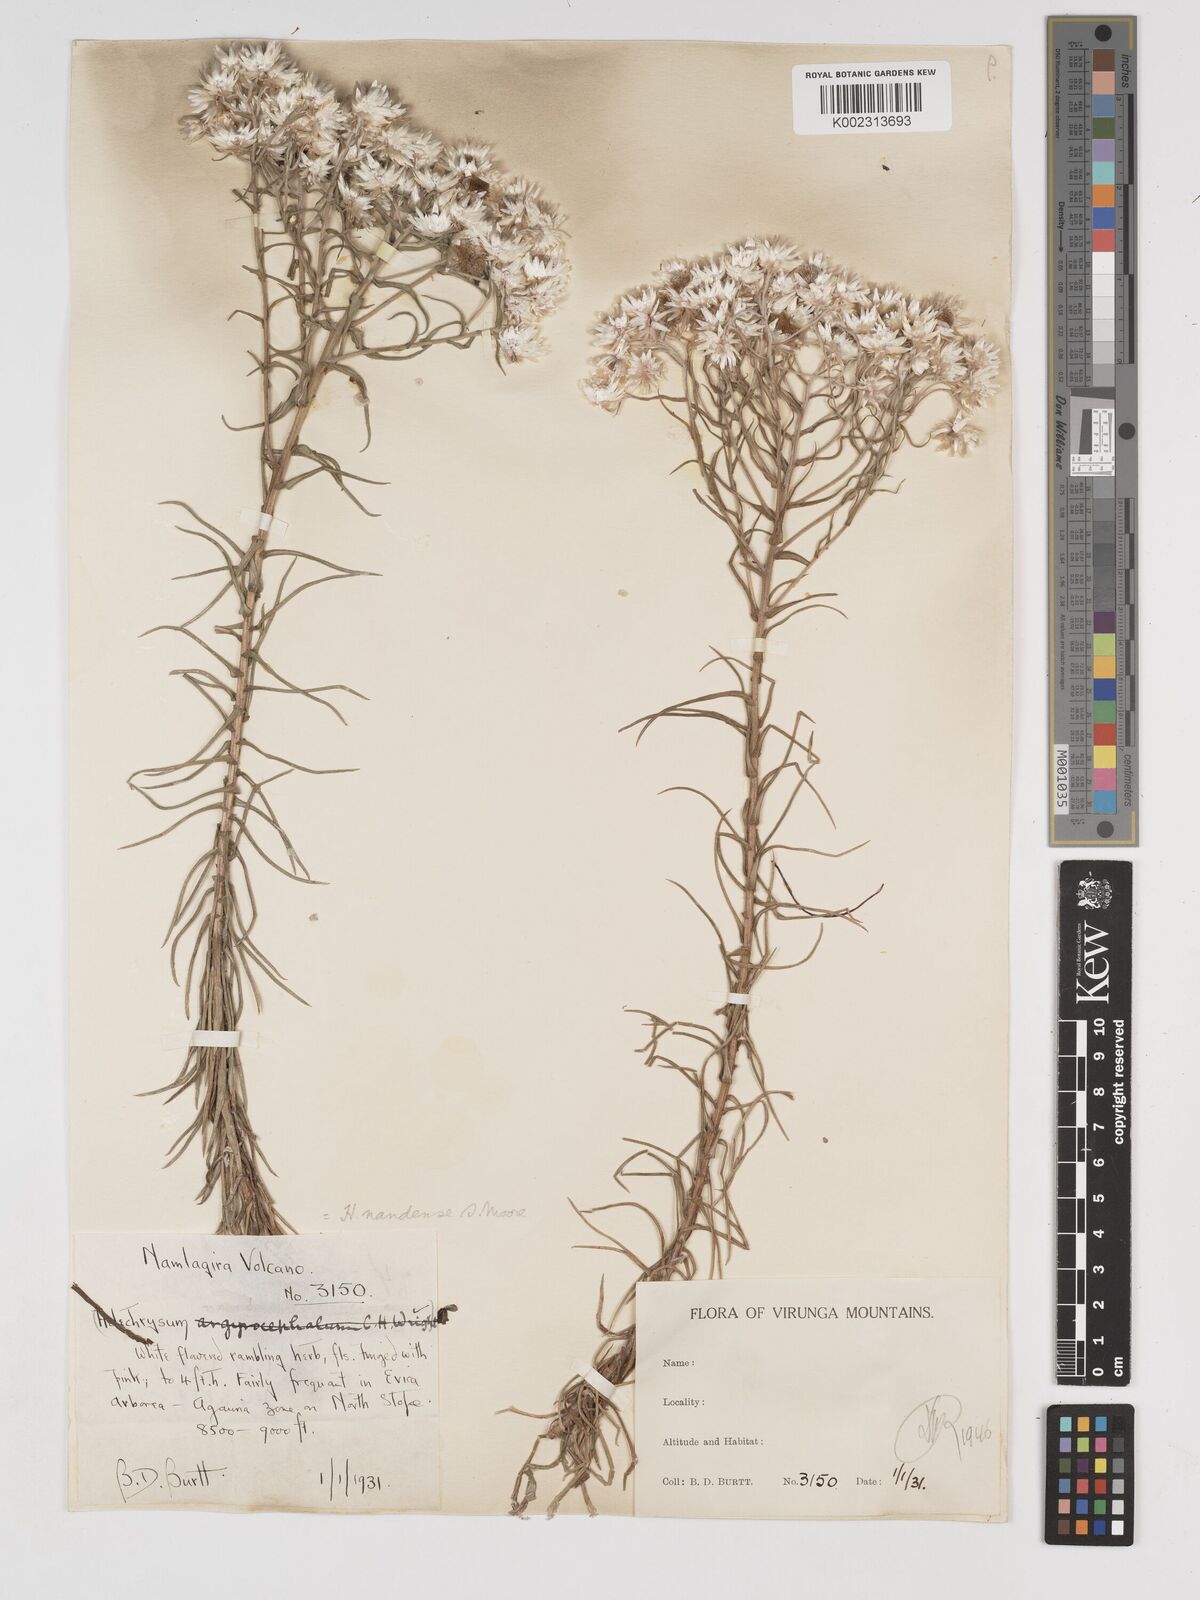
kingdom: Plantae
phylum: Tracheophyta
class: Magnoliopsida
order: Asterales
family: Asteraceae
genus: Helichrysum
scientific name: Helichrysum argyranthum
